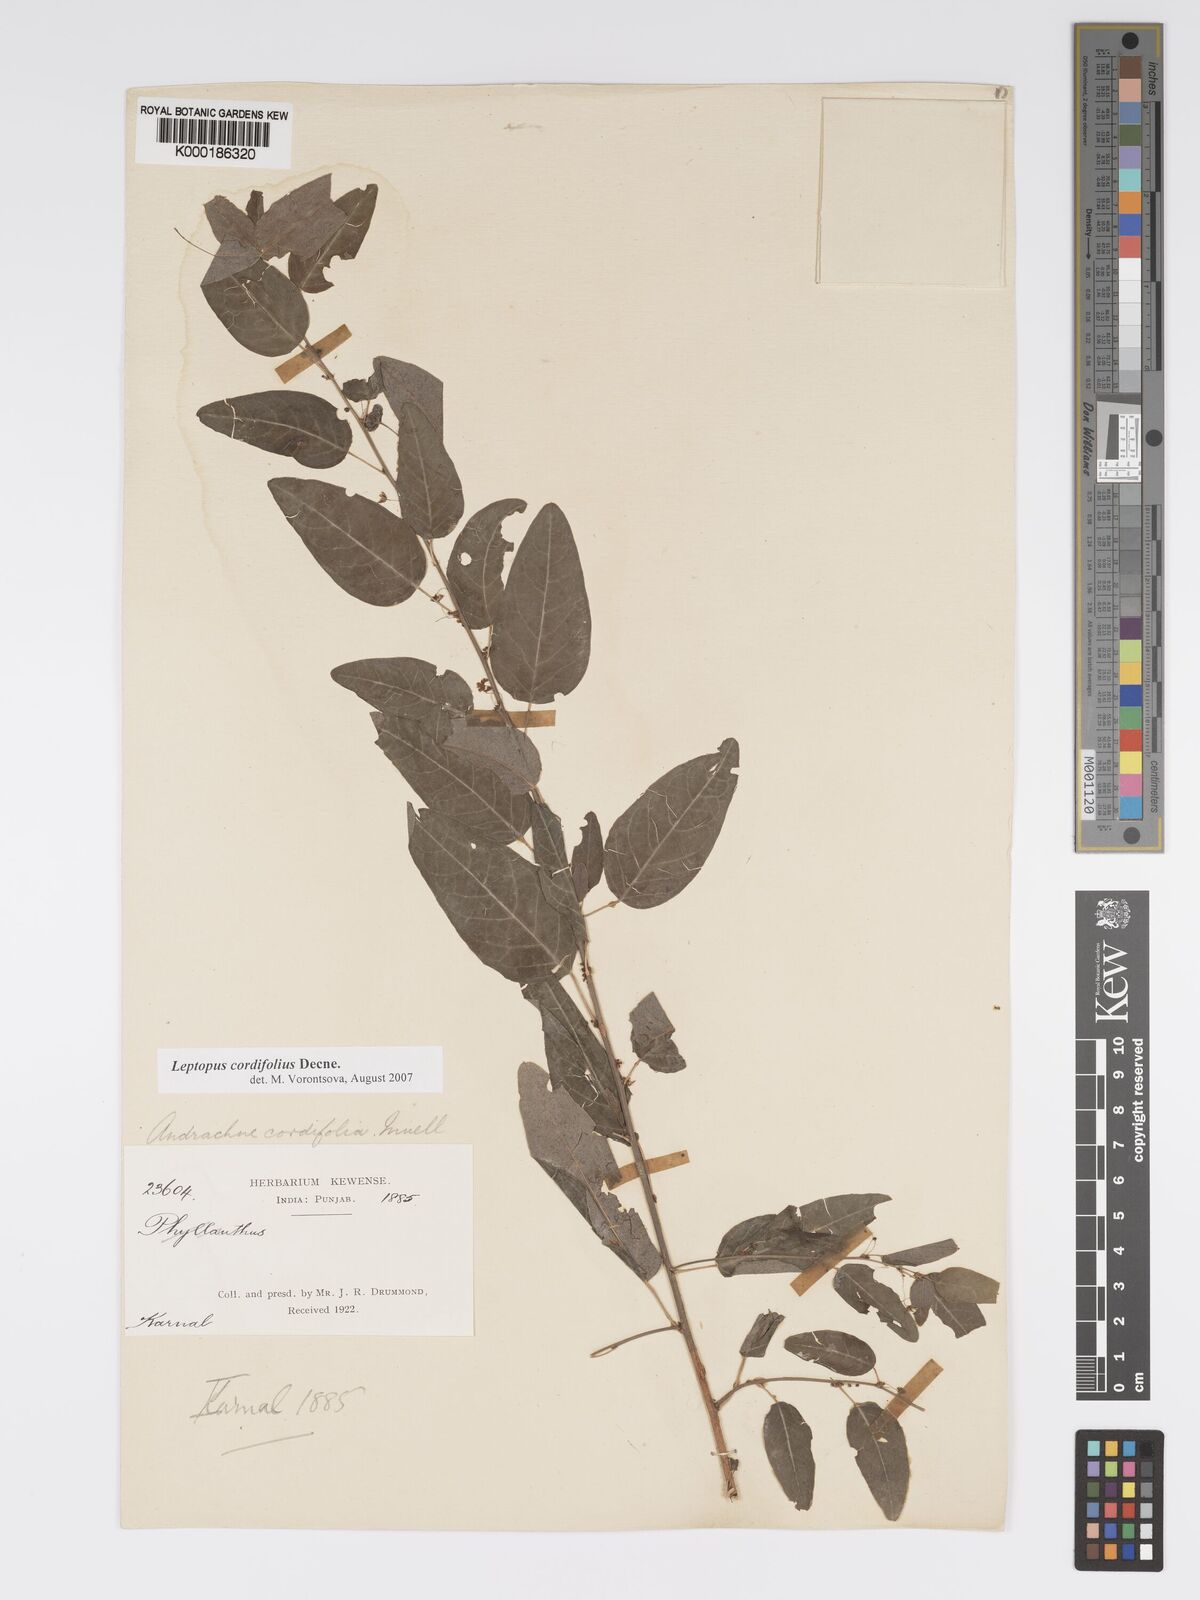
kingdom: Plantae
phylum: Tracheophyta
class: Magnoliopsida
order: Malpighiales
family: Phyllanthaceae
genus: Leptopus
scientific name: Leptopus cordifolius
